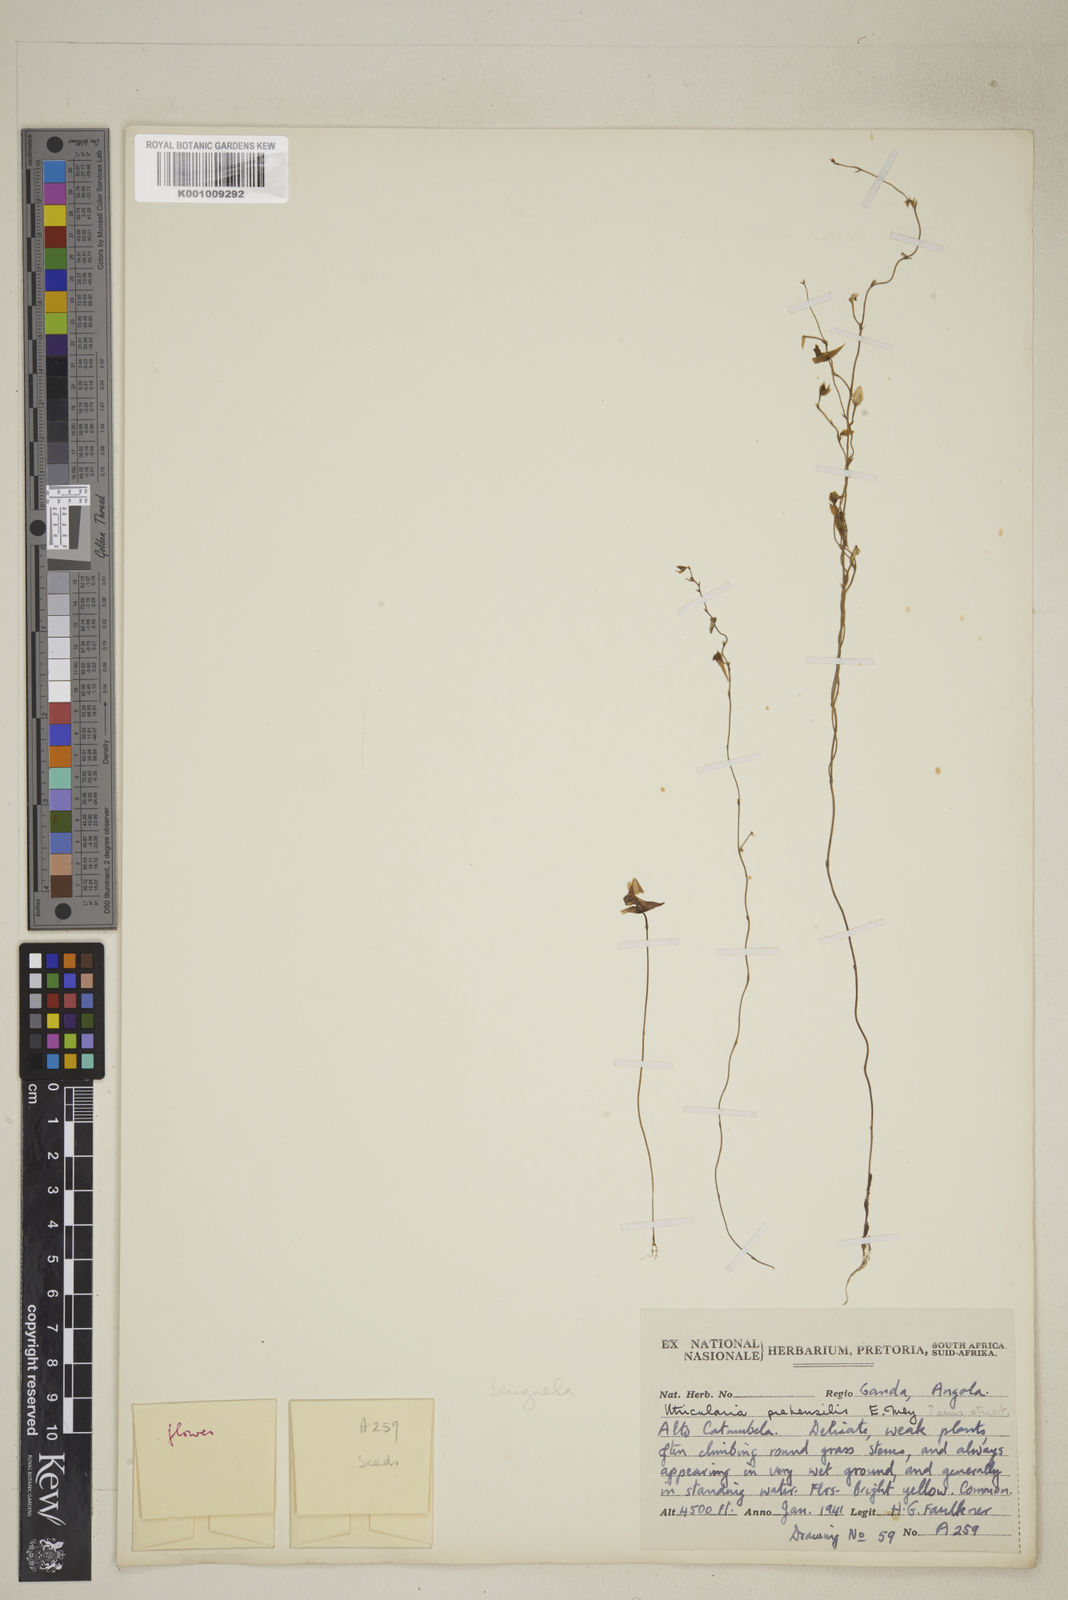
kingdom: Plantae
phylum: Tracheophyta
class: Magnoliopsida
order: Lamiales
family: Lentibulariaceae
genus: Utricularia
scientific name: Utricularia prehensilis
